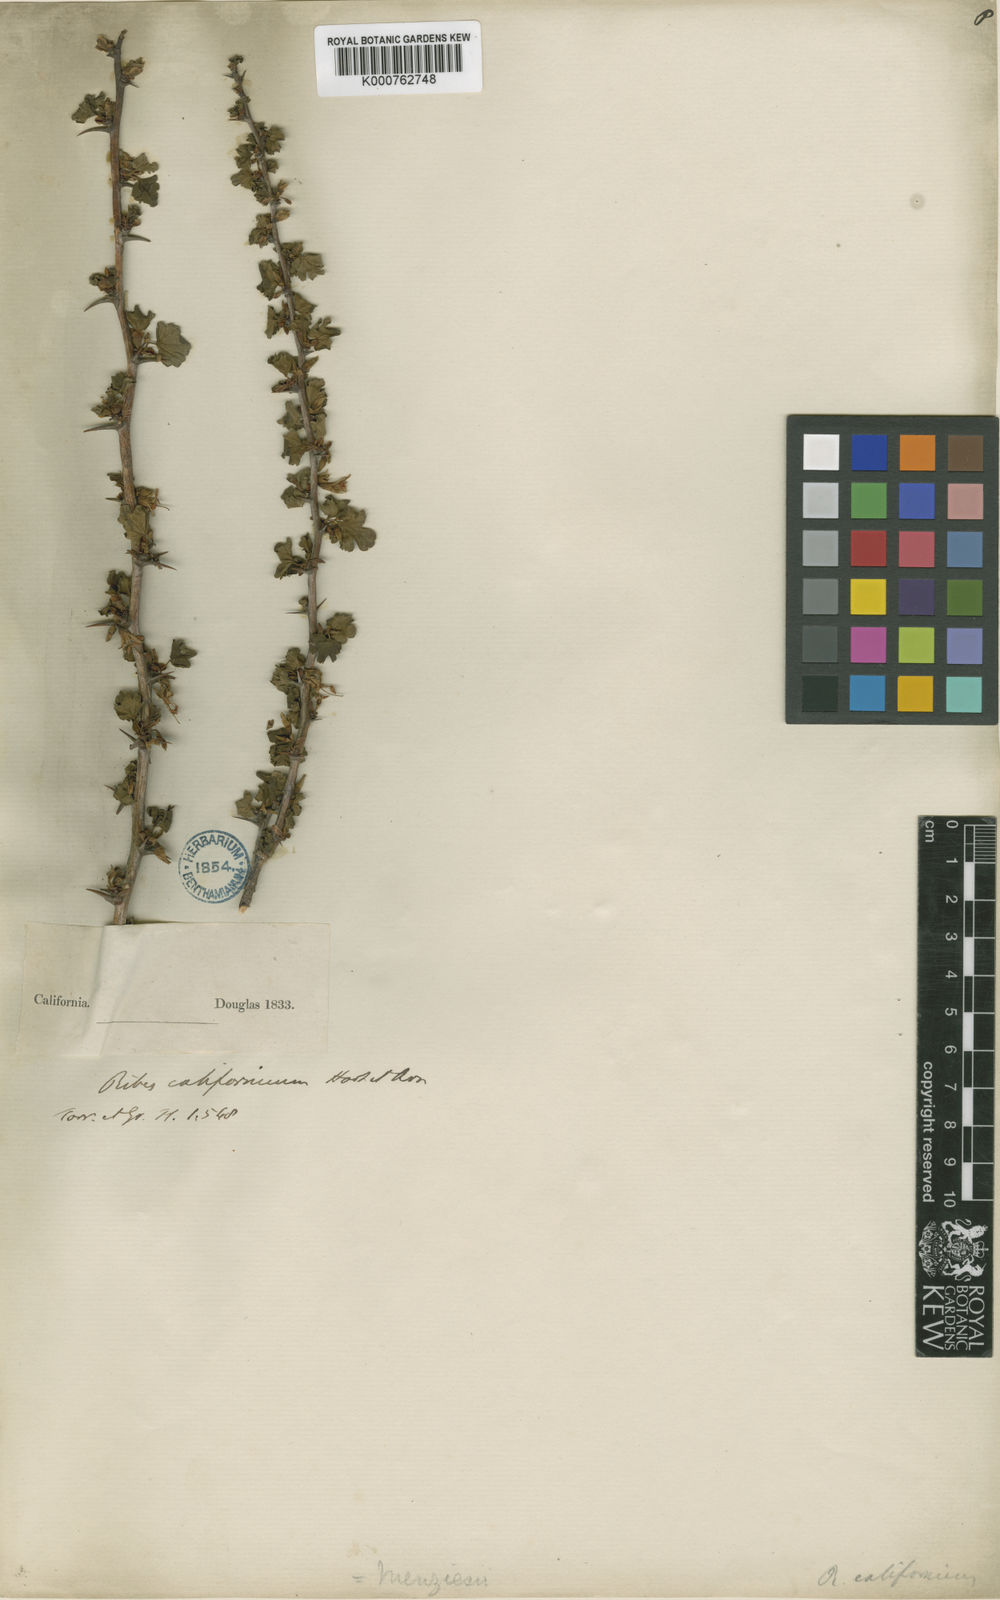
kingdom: Plantae
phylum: Tracheophyta
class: Magnoliopsida
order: Saxifragales
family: Grossulariaceae
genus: Ribes
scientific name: Ribes californicum
